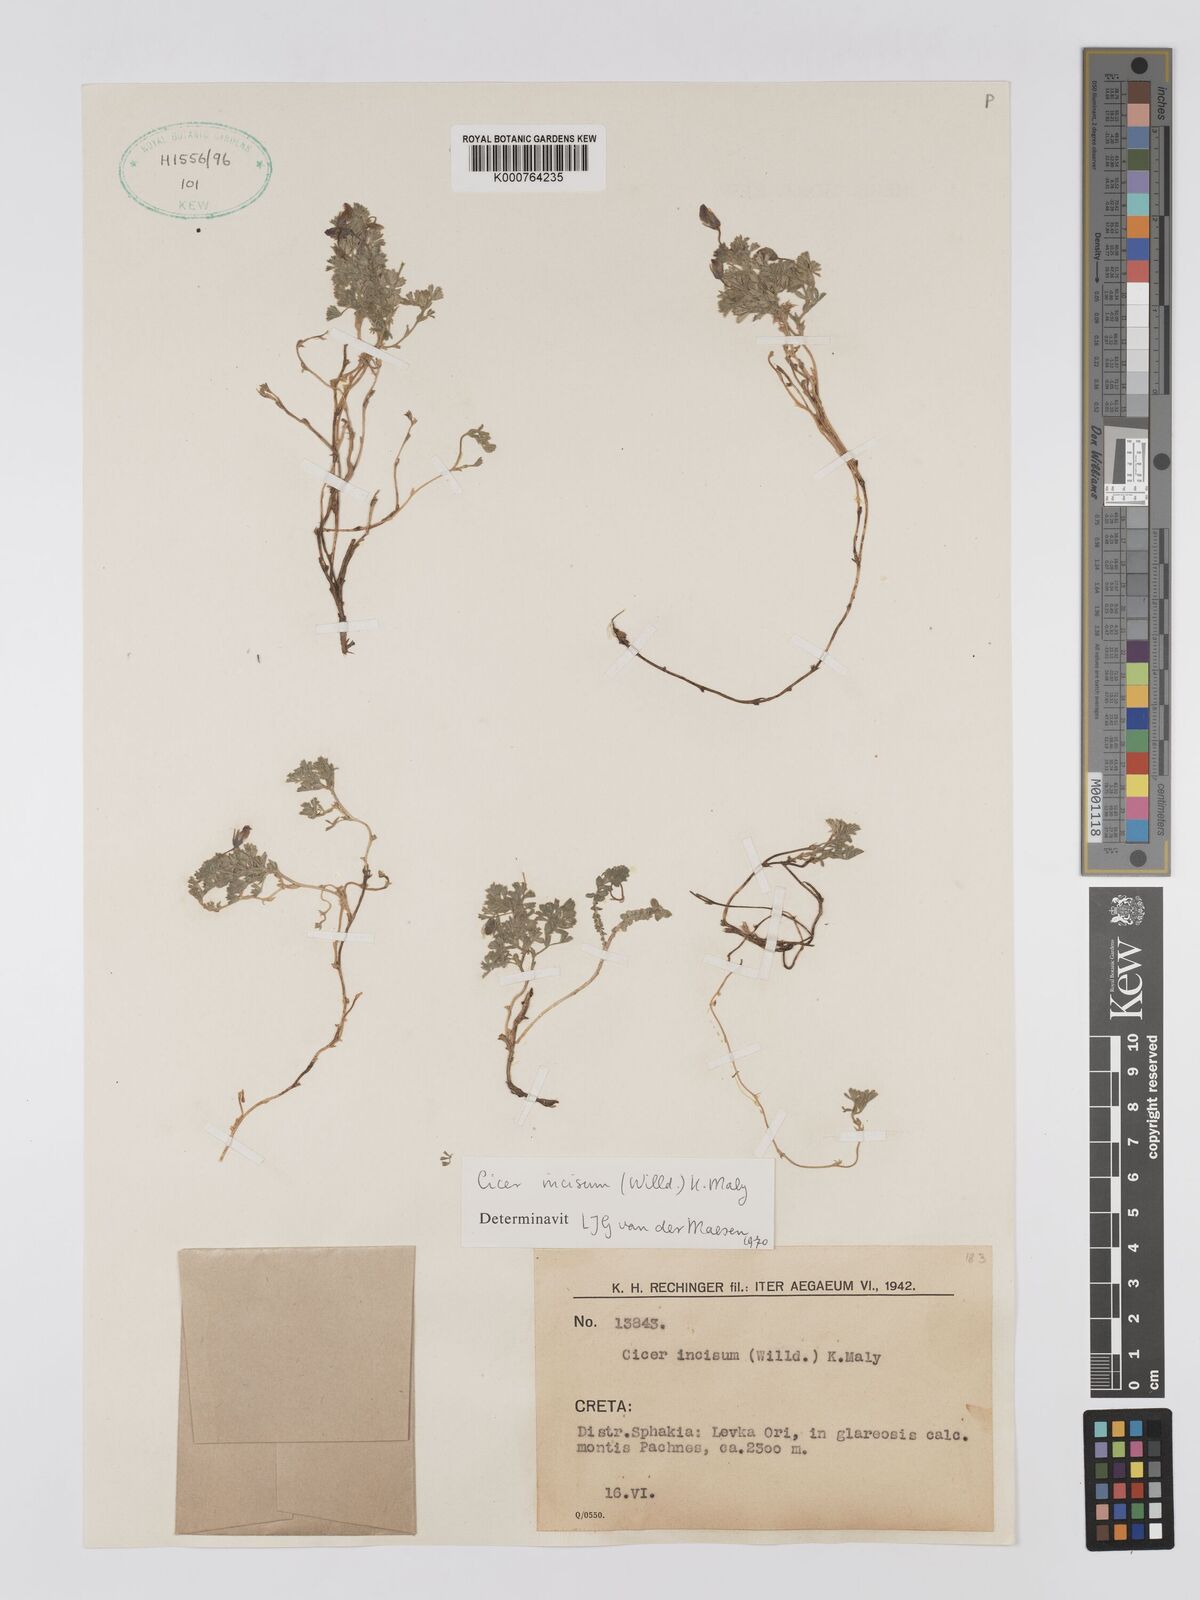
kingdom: Plantae
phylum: Tracheophyta
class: Magnoliopsida
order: Fabales
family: Fabaceae
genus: Cicer
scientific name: Cicer incisum
